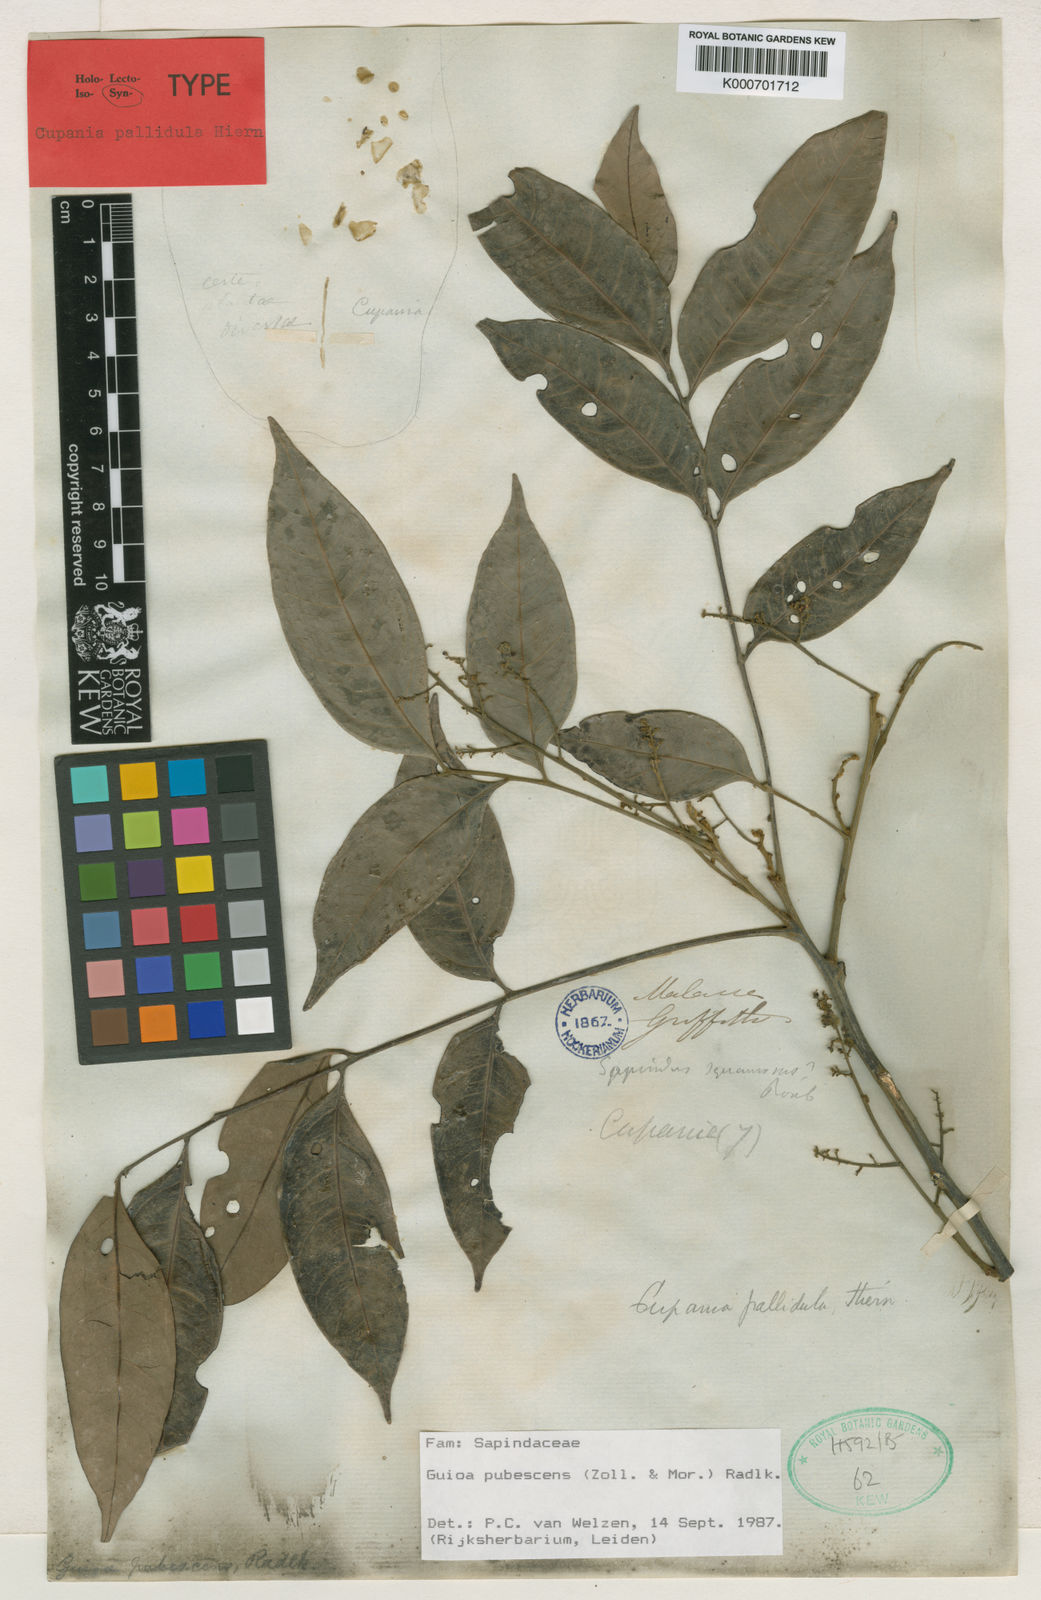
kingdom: Plantae
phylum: Tracheophyta
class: Magnoliopsida
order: Sapindales
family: Sapindaceae
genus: Guioa
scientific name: Guioa pubescens
